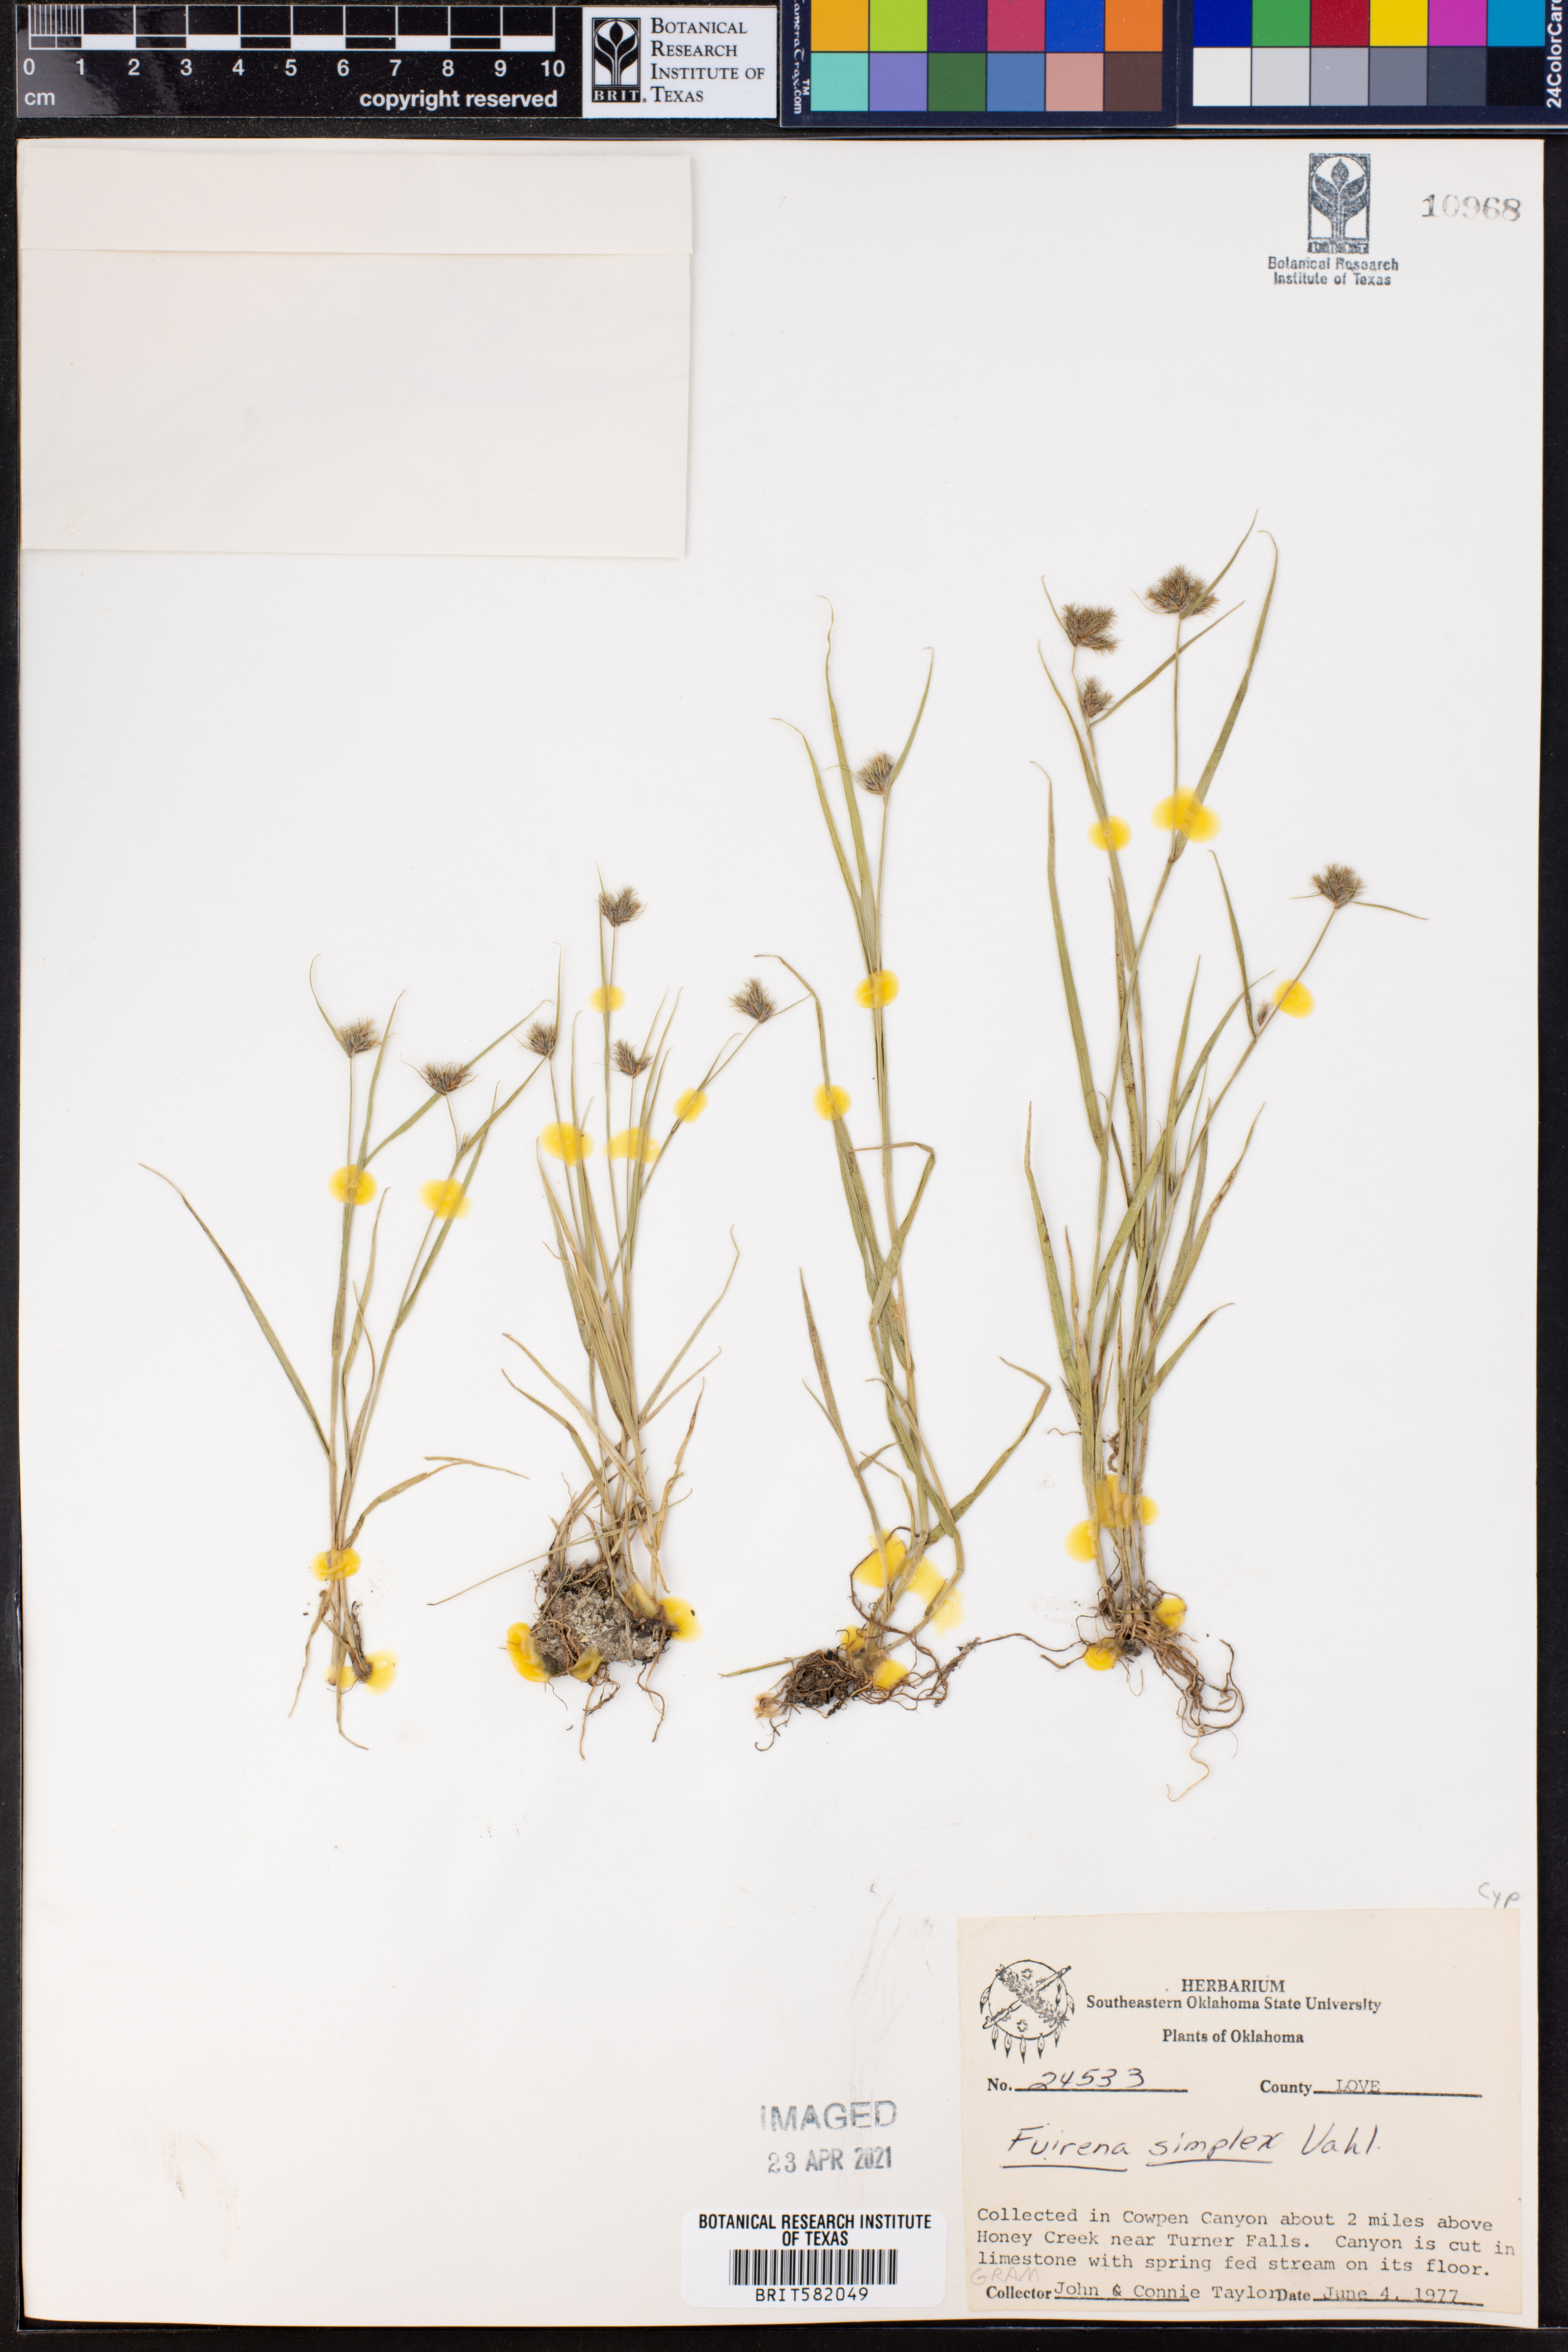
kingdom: Plantae
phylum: Tracheophyta
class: Liliopsida
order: Poales
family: Cyperaceae
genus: Fuirena
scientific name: Fuirena simplex
